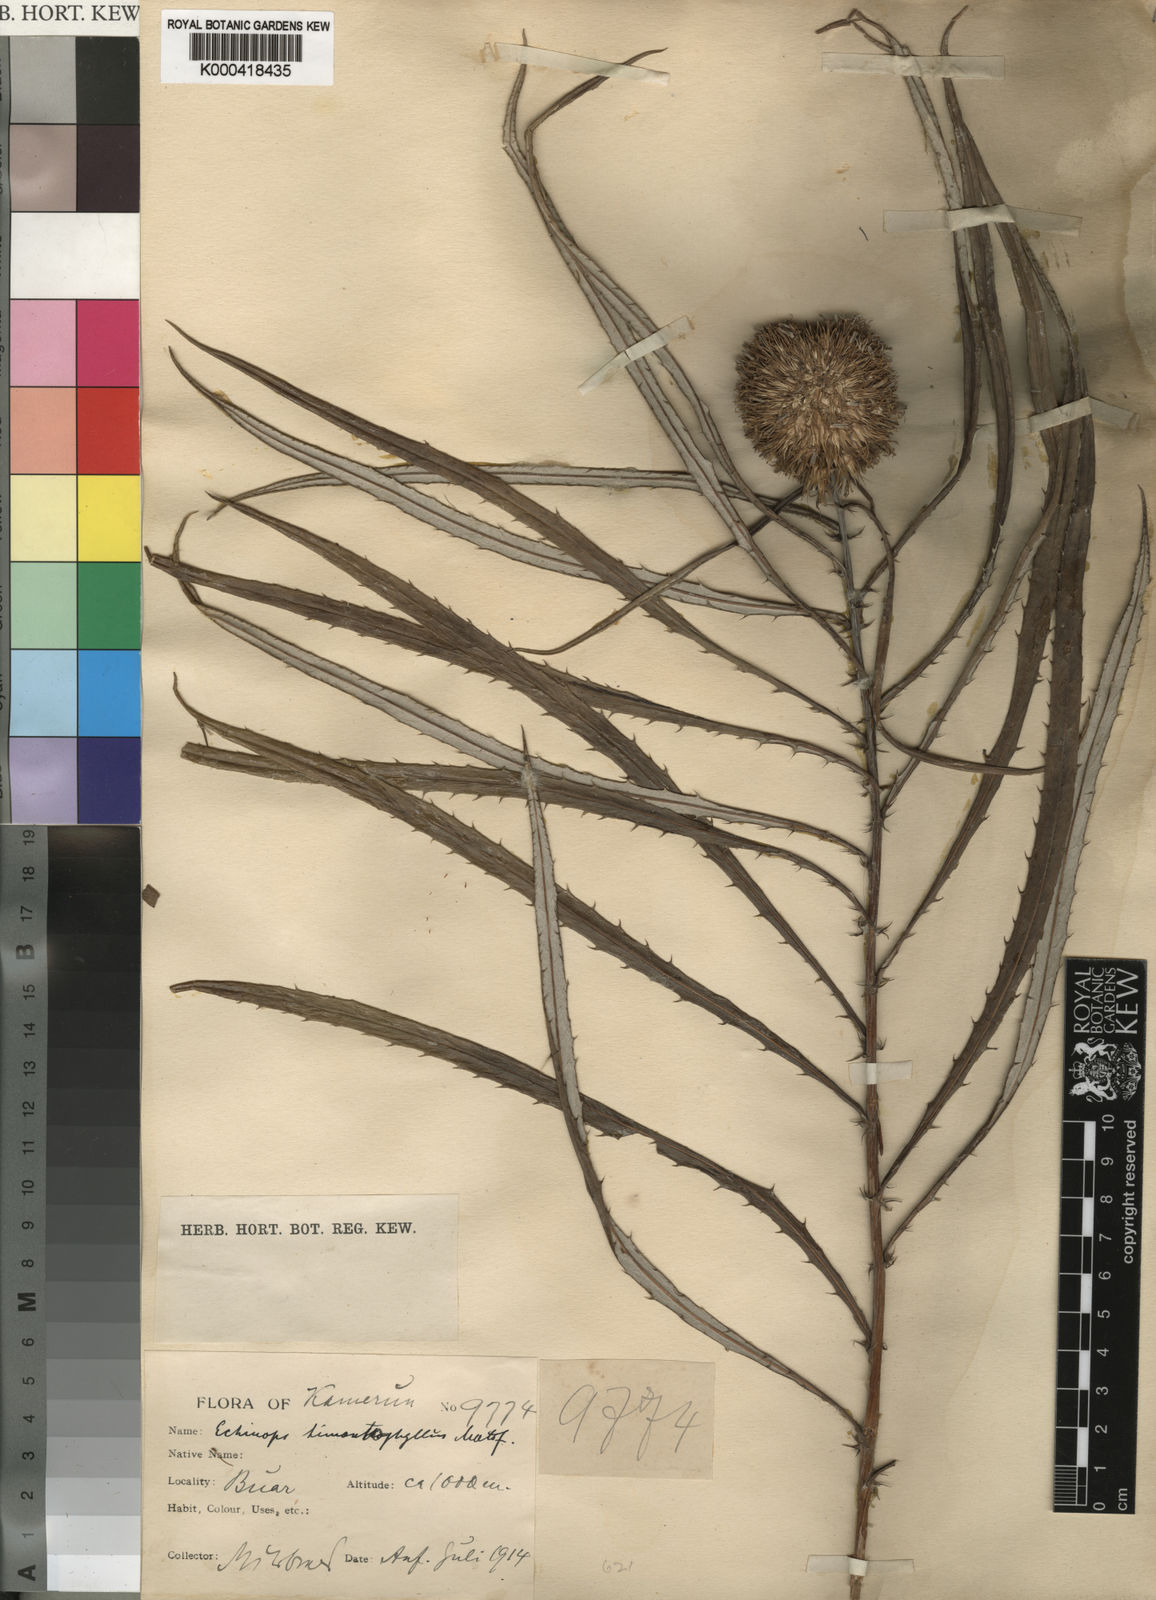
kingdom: Plantae
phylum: Tracheophyta
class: Magnoliopsida
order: Asterales
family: Asteraceae
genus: Echinops
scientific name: Echinops himantophyllus
